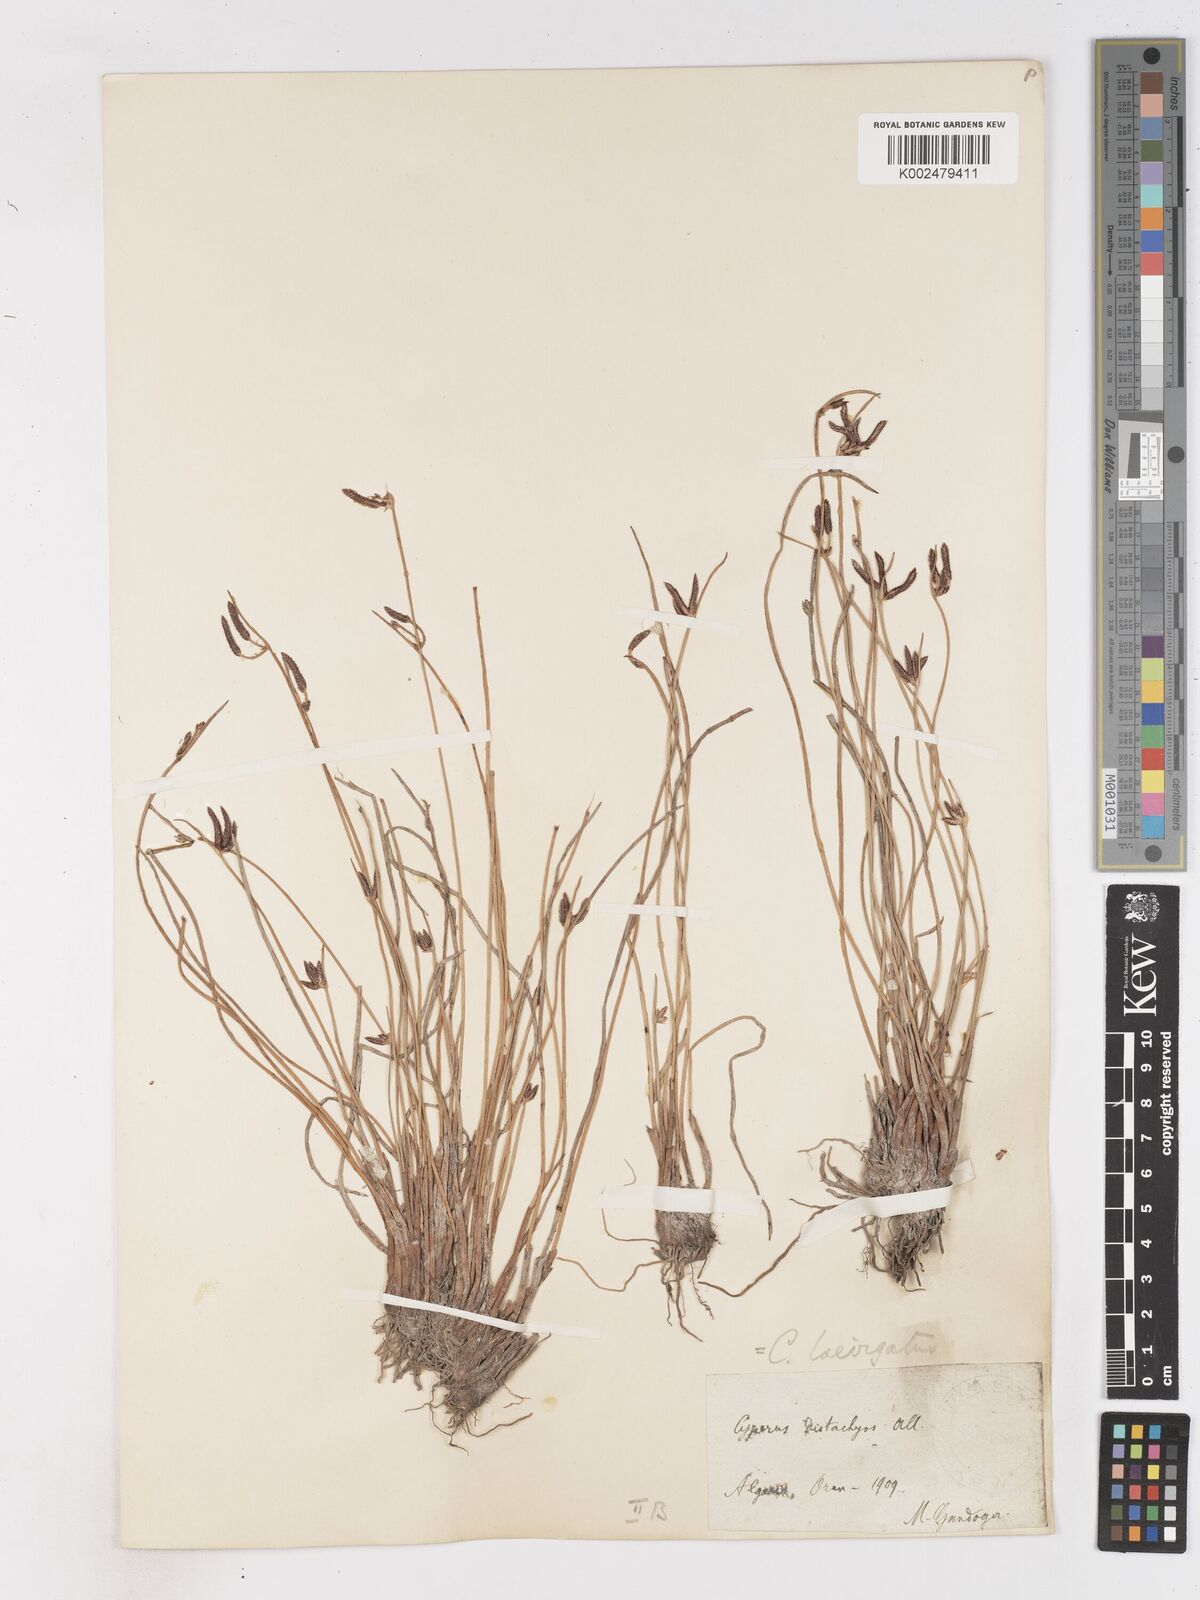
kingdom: Plantae
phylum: Tracheophyta
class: Liliopsida
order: Poales
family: Cyperaceae
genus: Cyperus
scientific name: Cyperus laevigatus
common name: Smooth flat sedge
